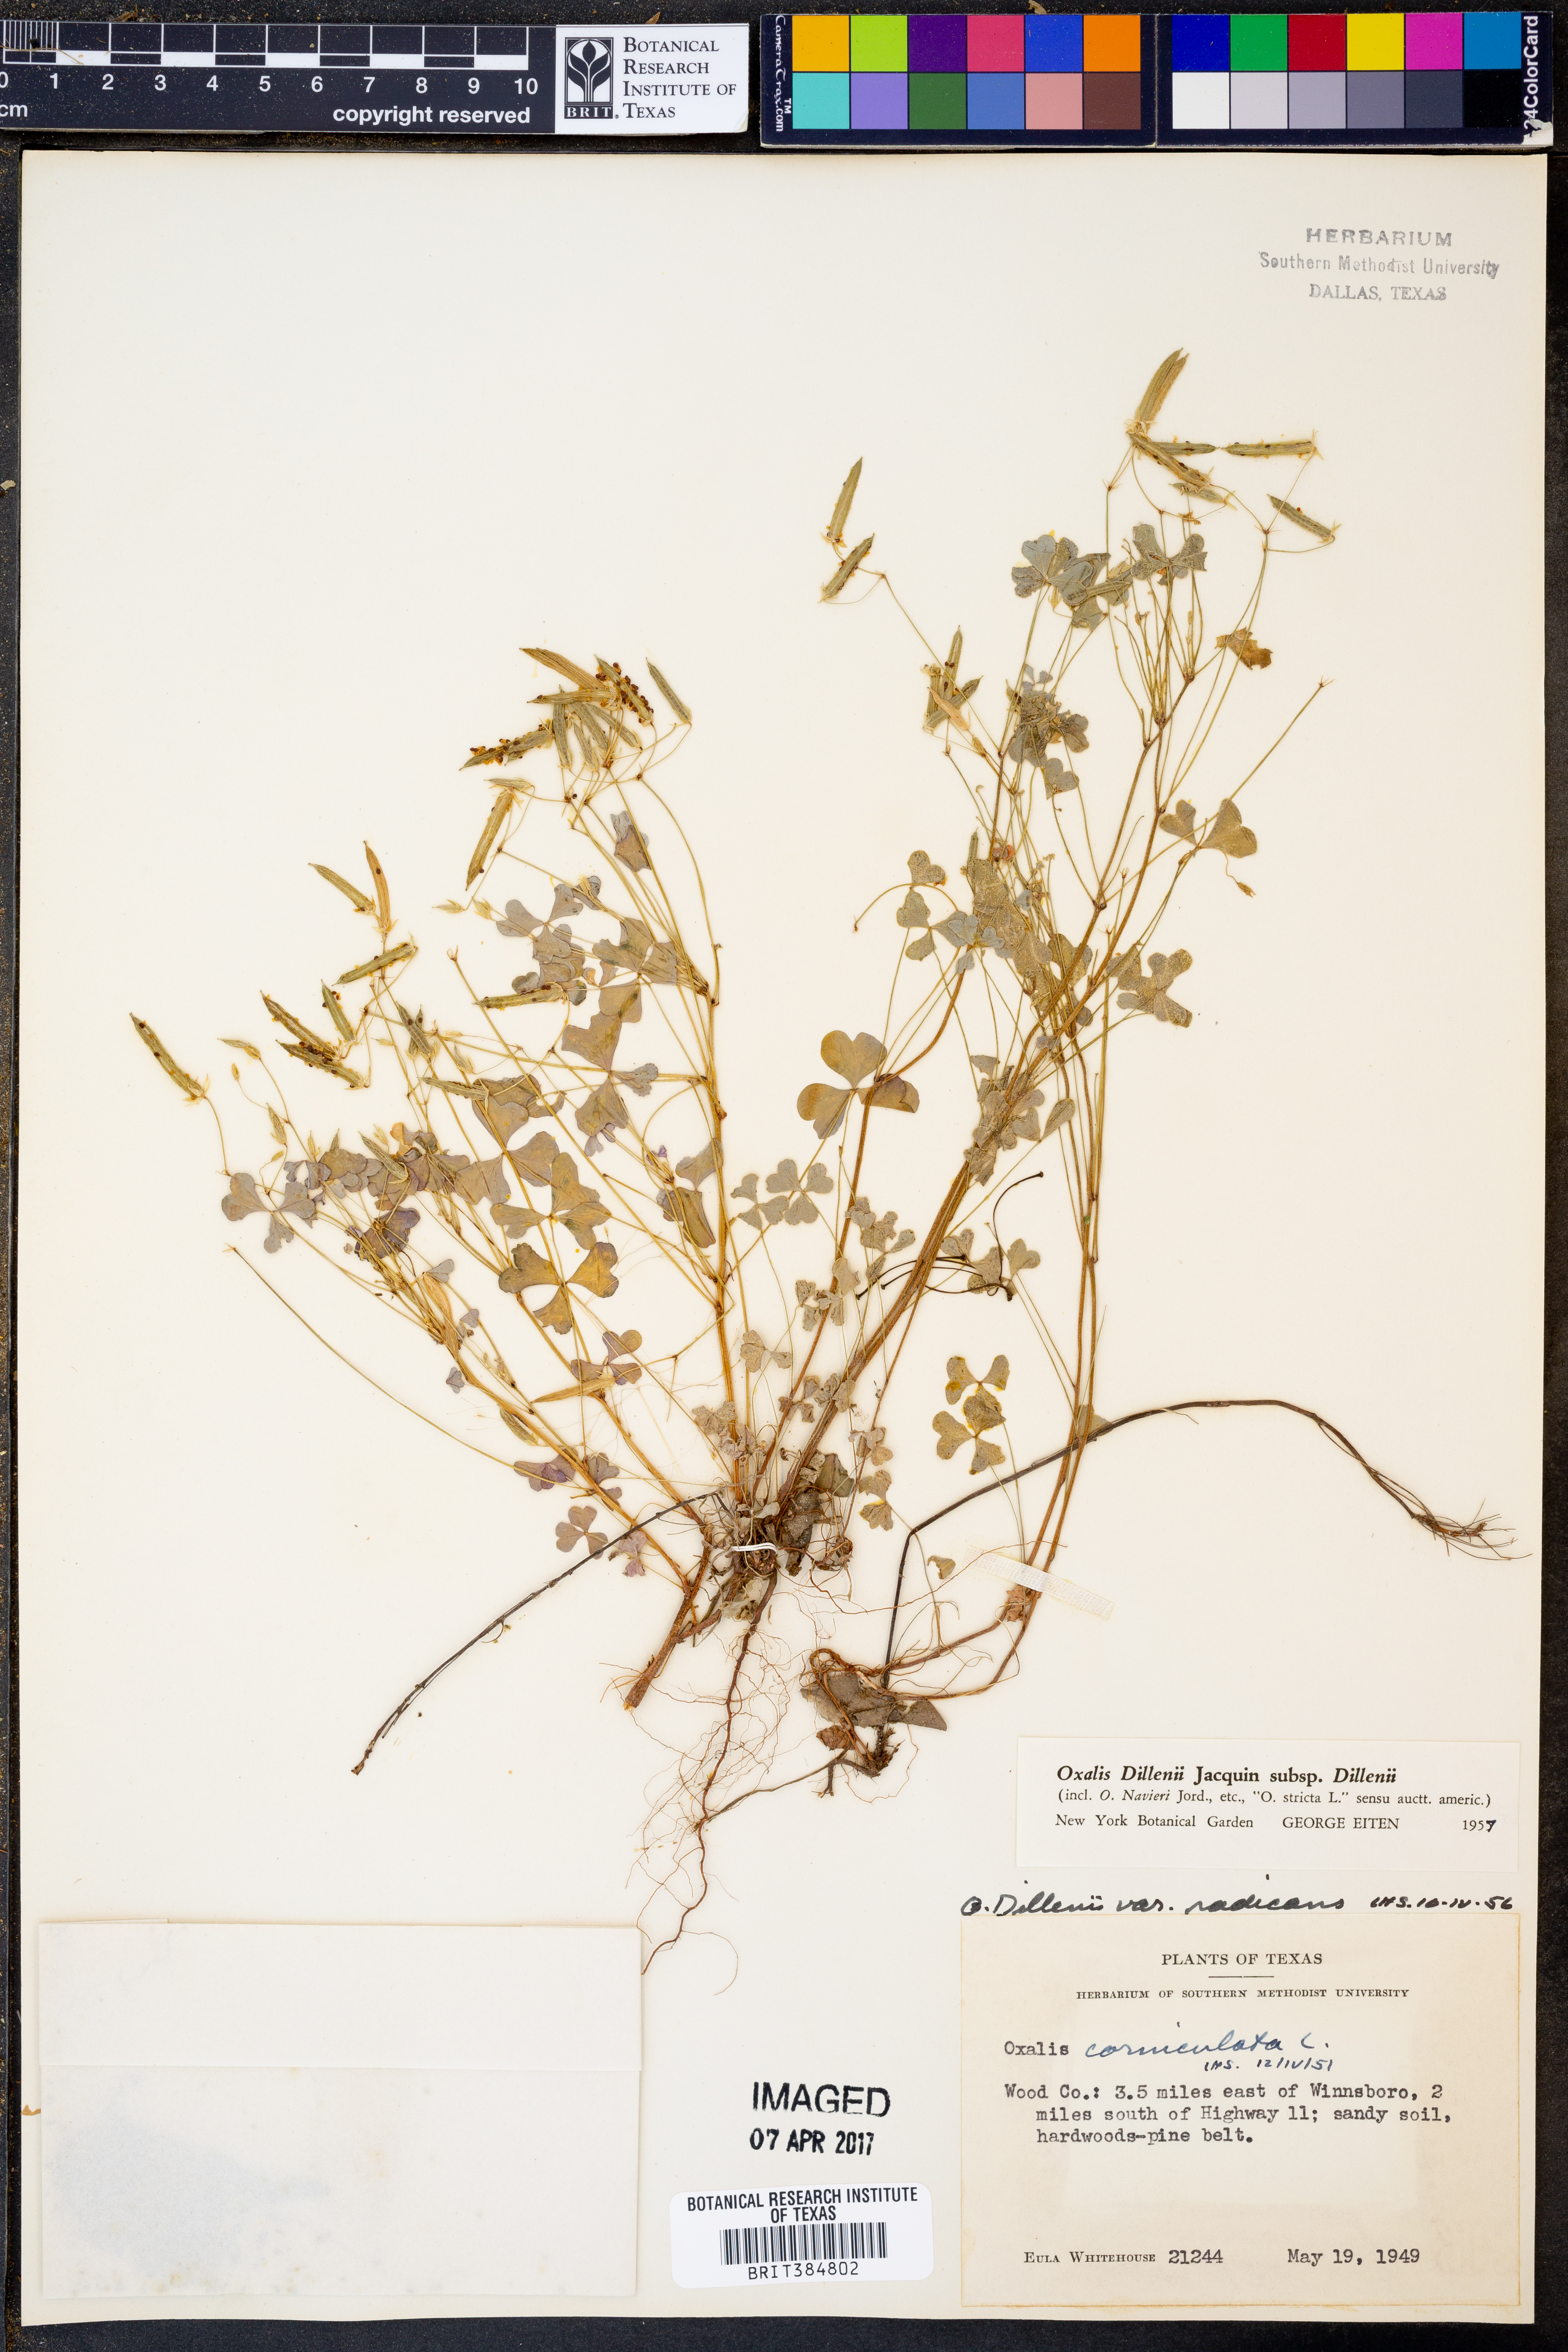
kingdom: Plantae
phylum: Tracheophyta
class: Magnoliopsida
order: Oxalidales
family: Oxalidaceae
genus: Oxalis
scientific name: Oxalis dillenii
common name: Sussex yellow-sorrel
